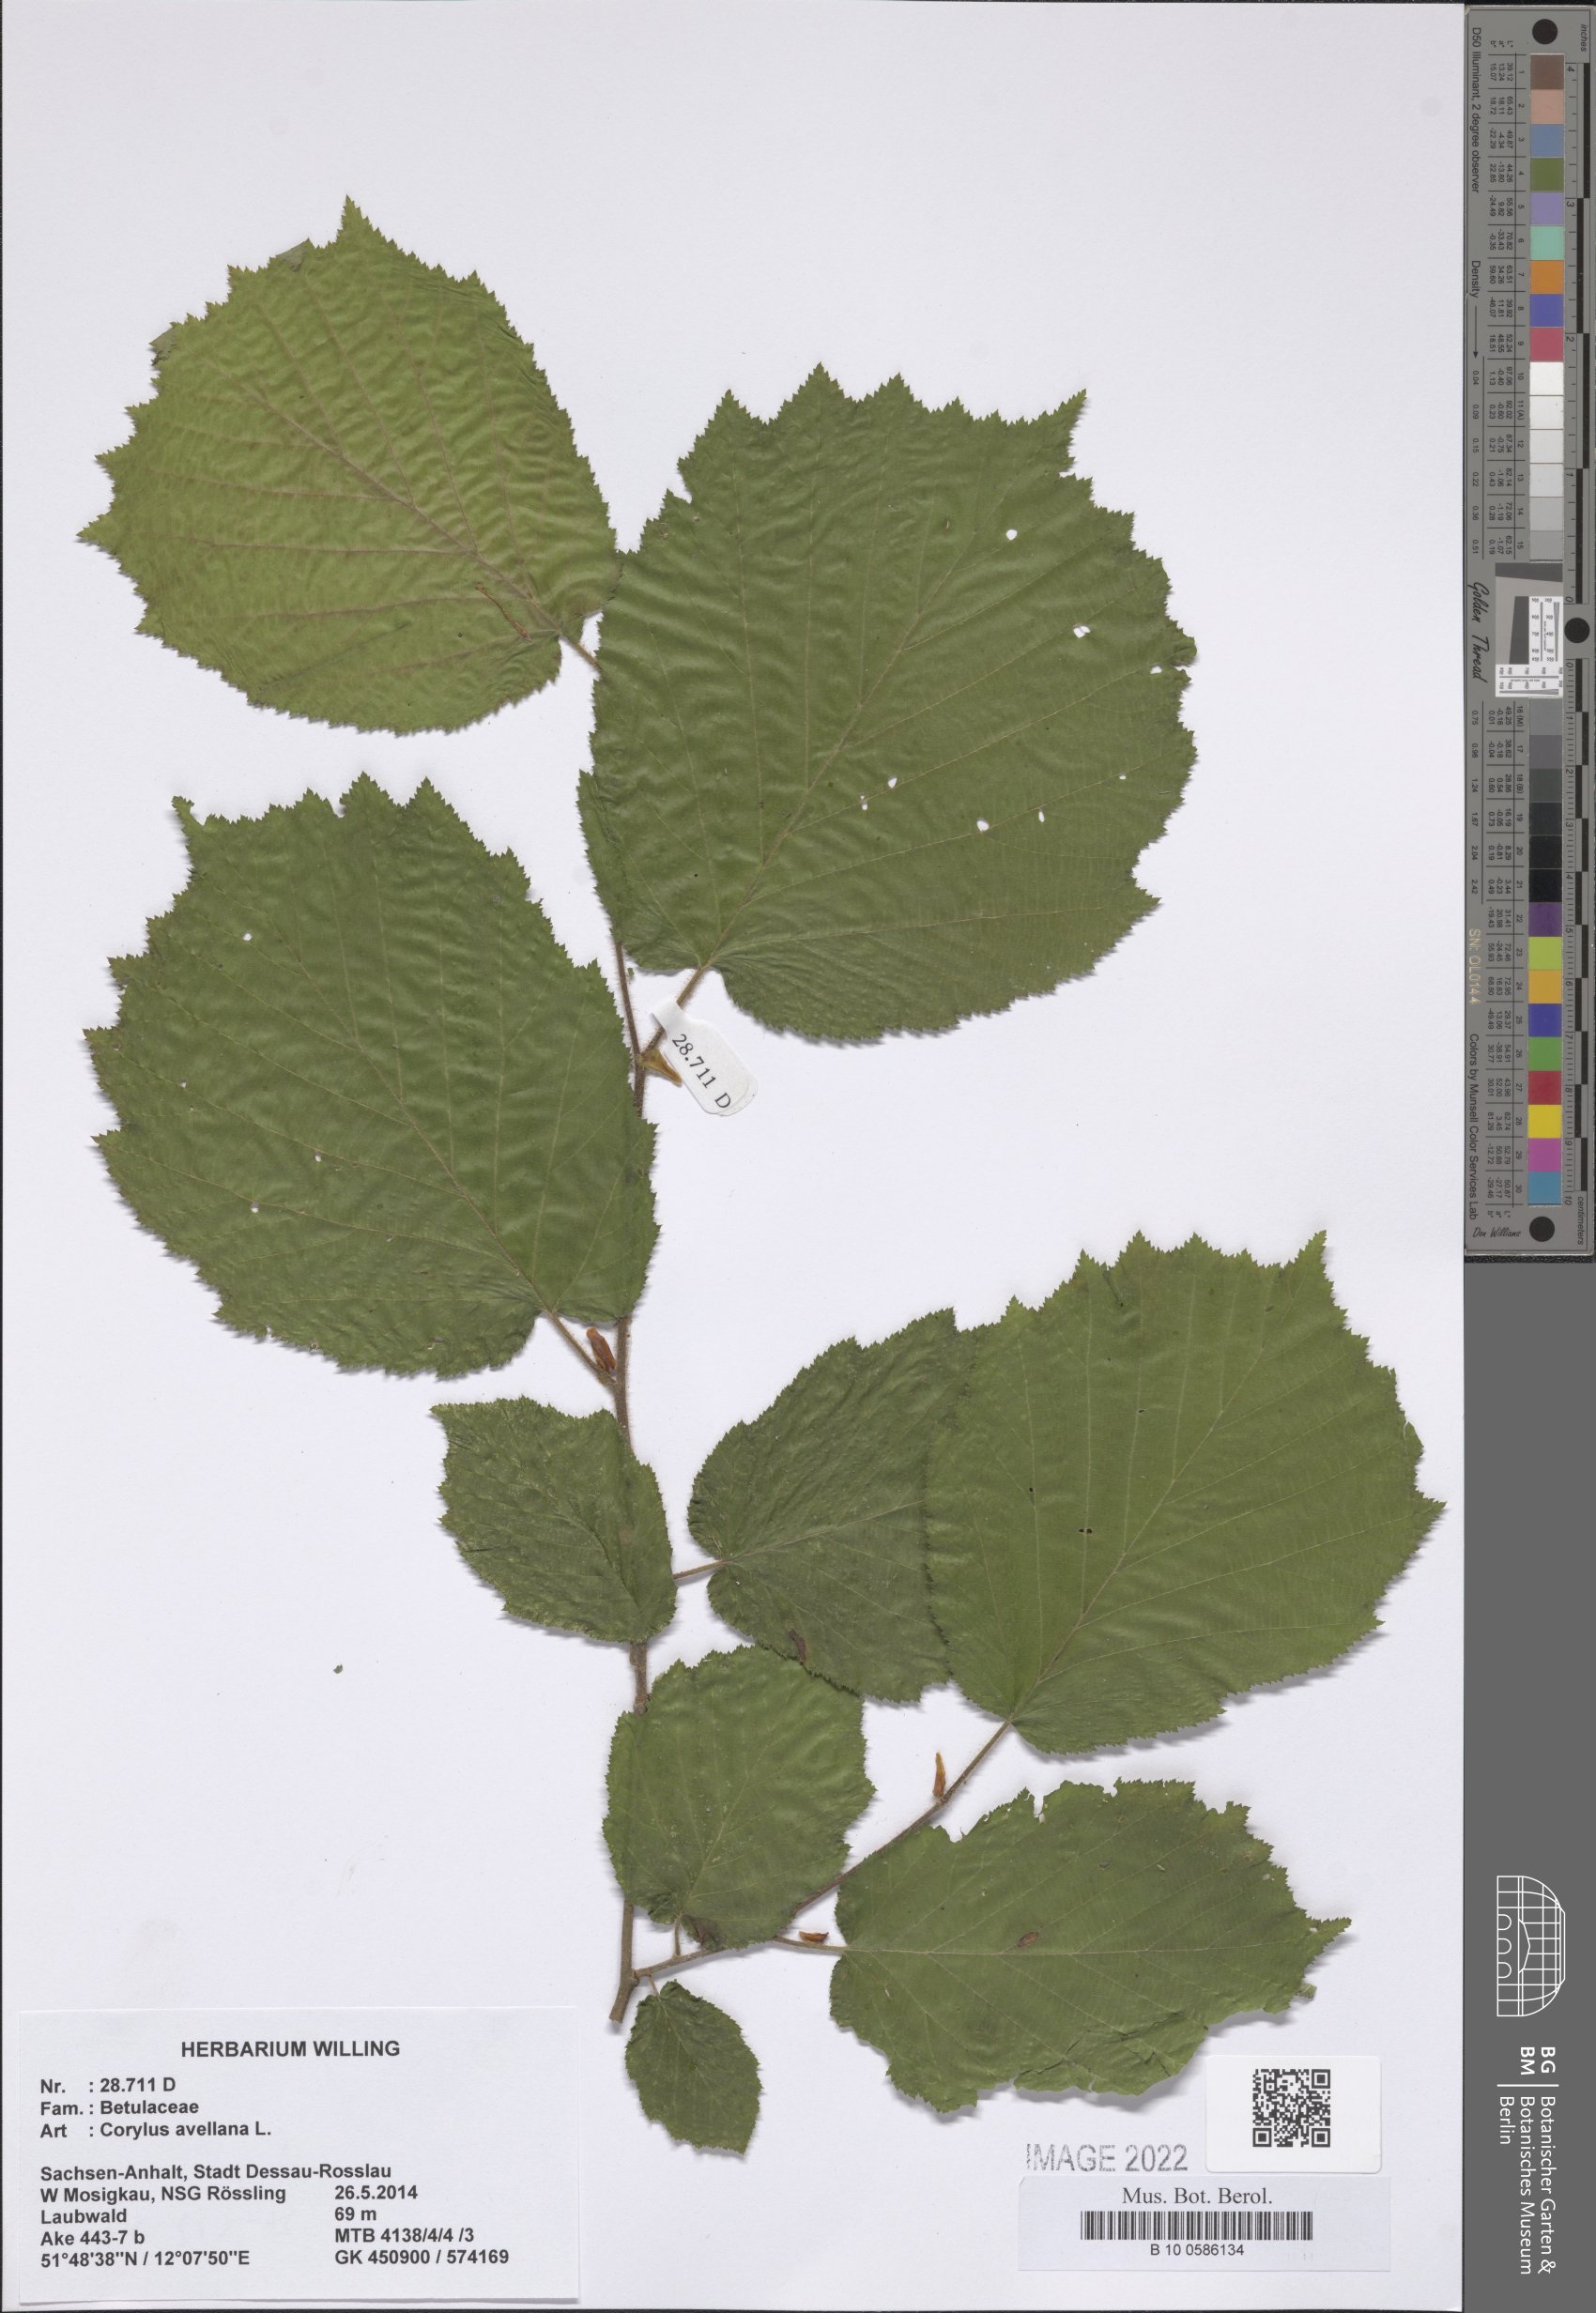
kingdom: Plantae
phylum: Tracheophyta
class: Magnoliopsida
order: Fagales
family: Betulaceae
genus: Corylus
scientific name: Corylus avellana
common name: European hazel
